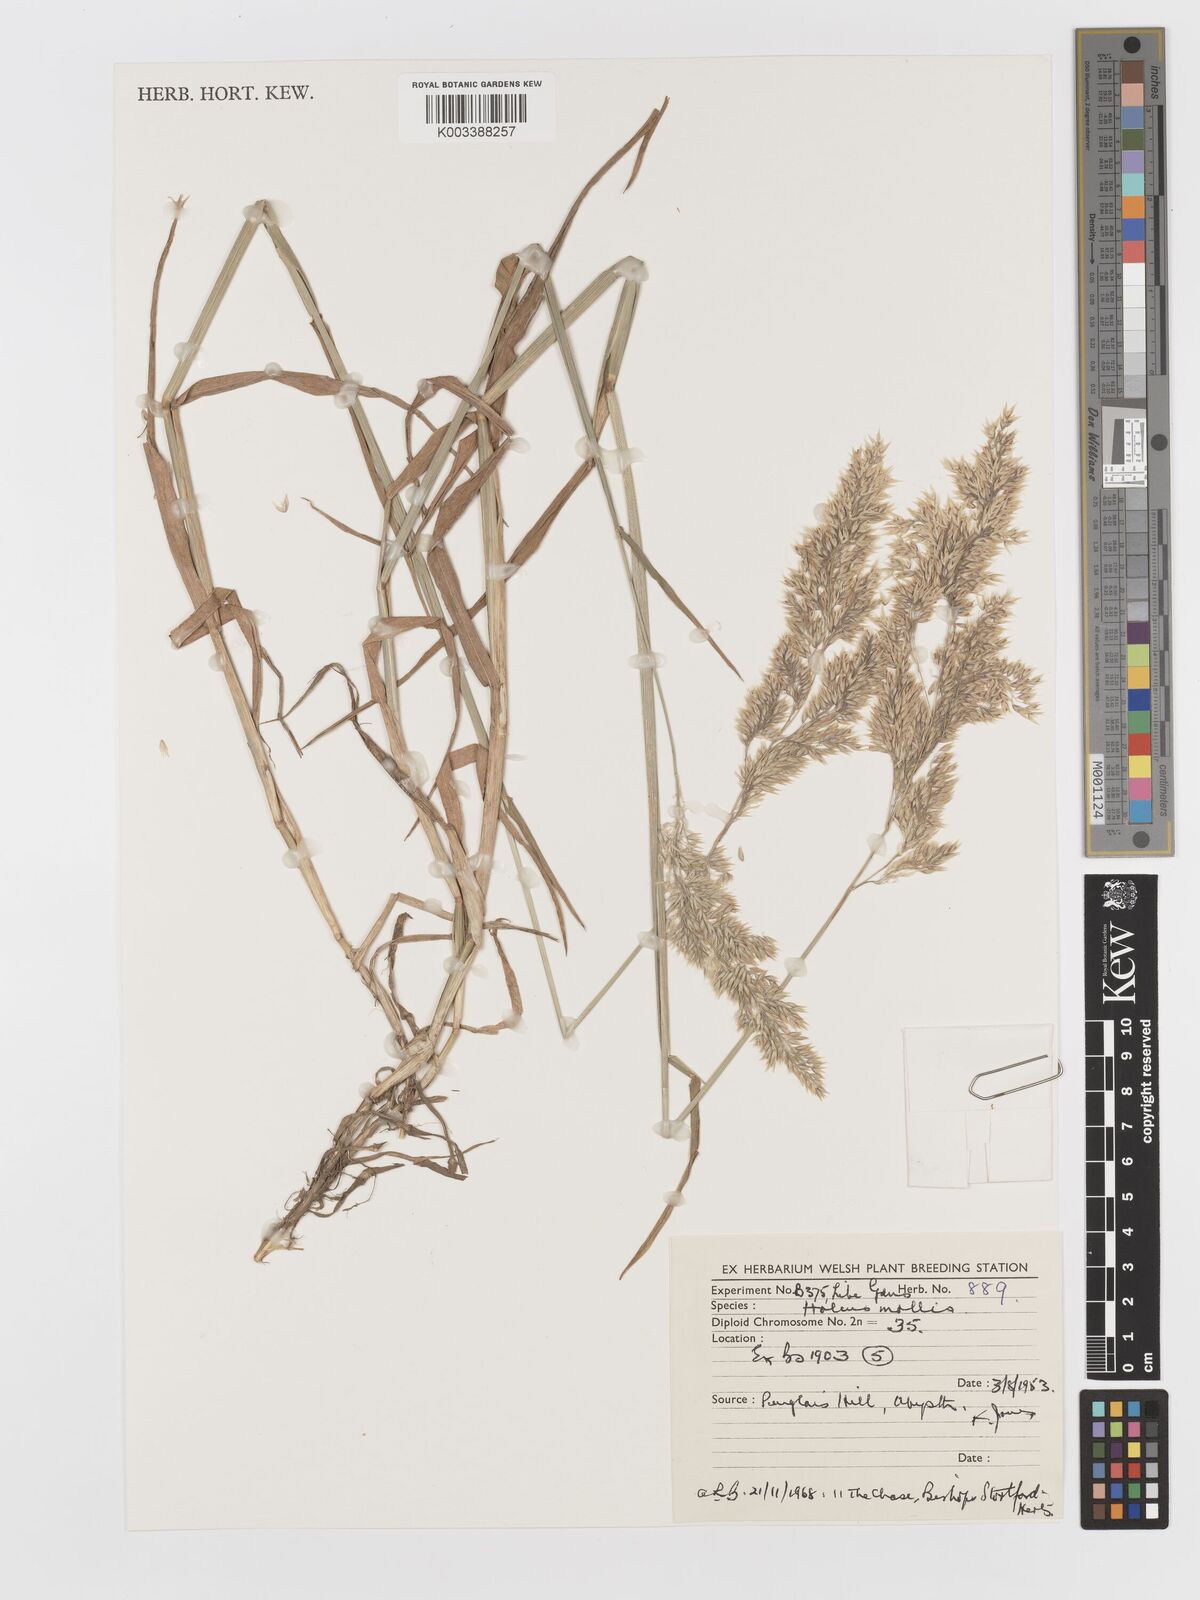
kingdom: Plantae
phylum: Tracheophyta
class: Liliopsida
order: Poales
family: Poaceae
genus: Holcus
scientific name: Holcus mollis
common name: Creeping velvetgrass
